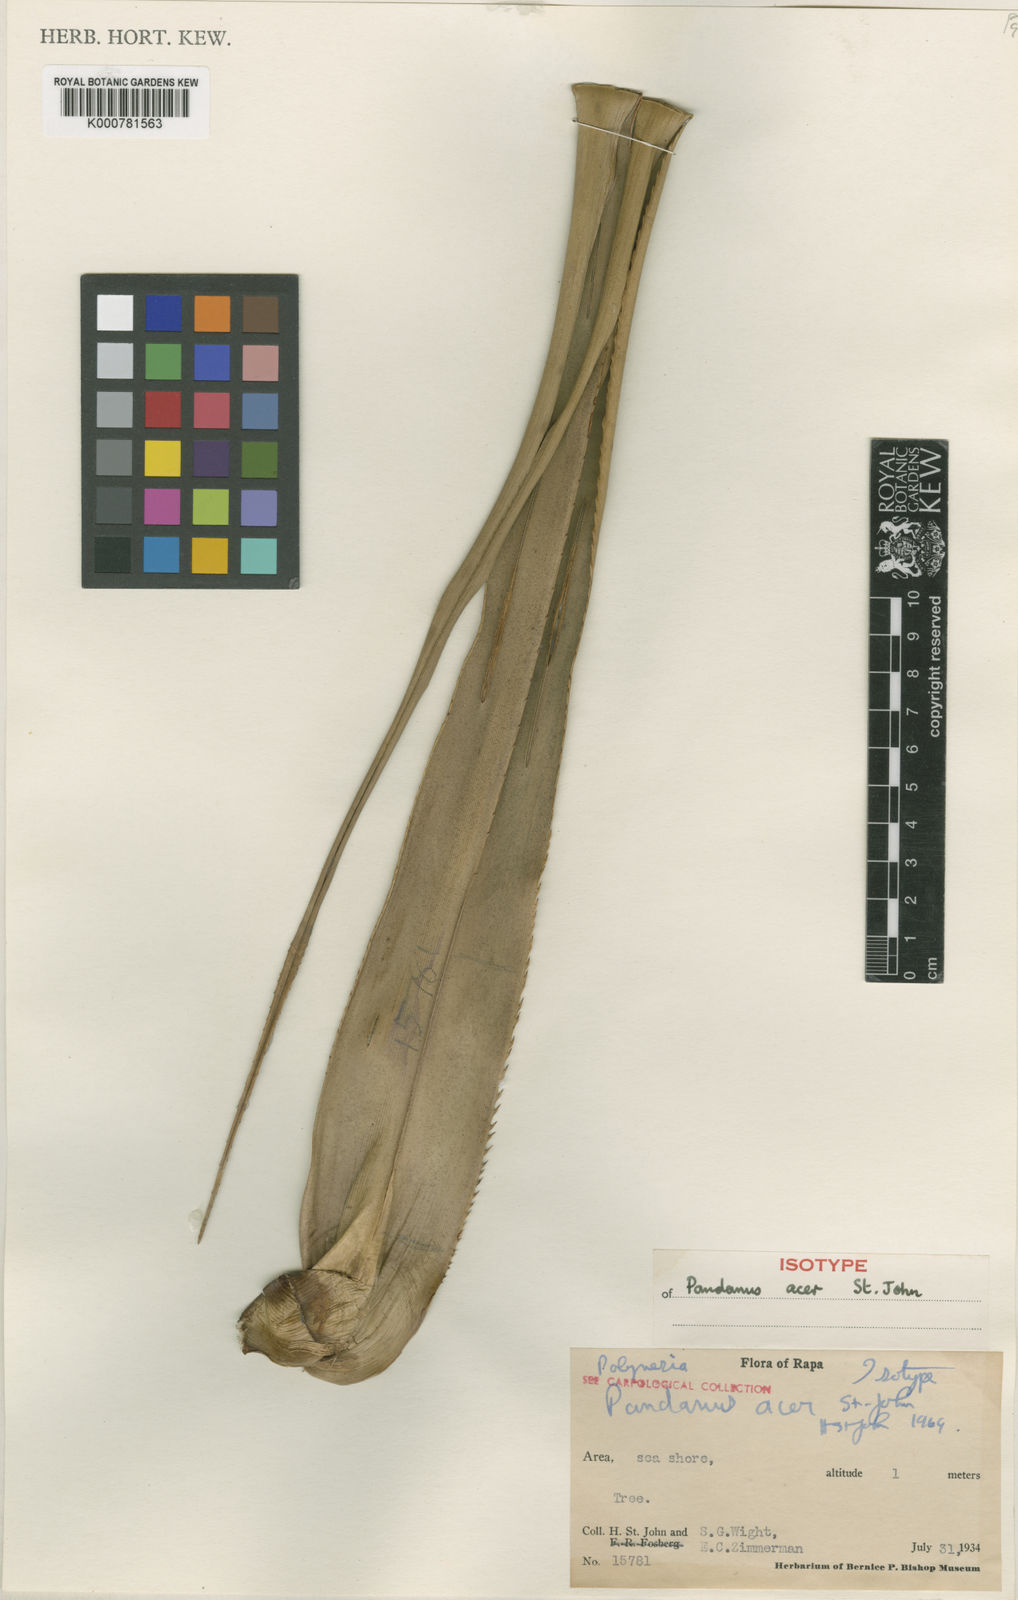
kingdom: Plantae
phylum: Tracheophyta
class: Liliopsida
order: Pandanales
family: Pandanaceae
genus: Pandanus
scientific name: Pandanus
